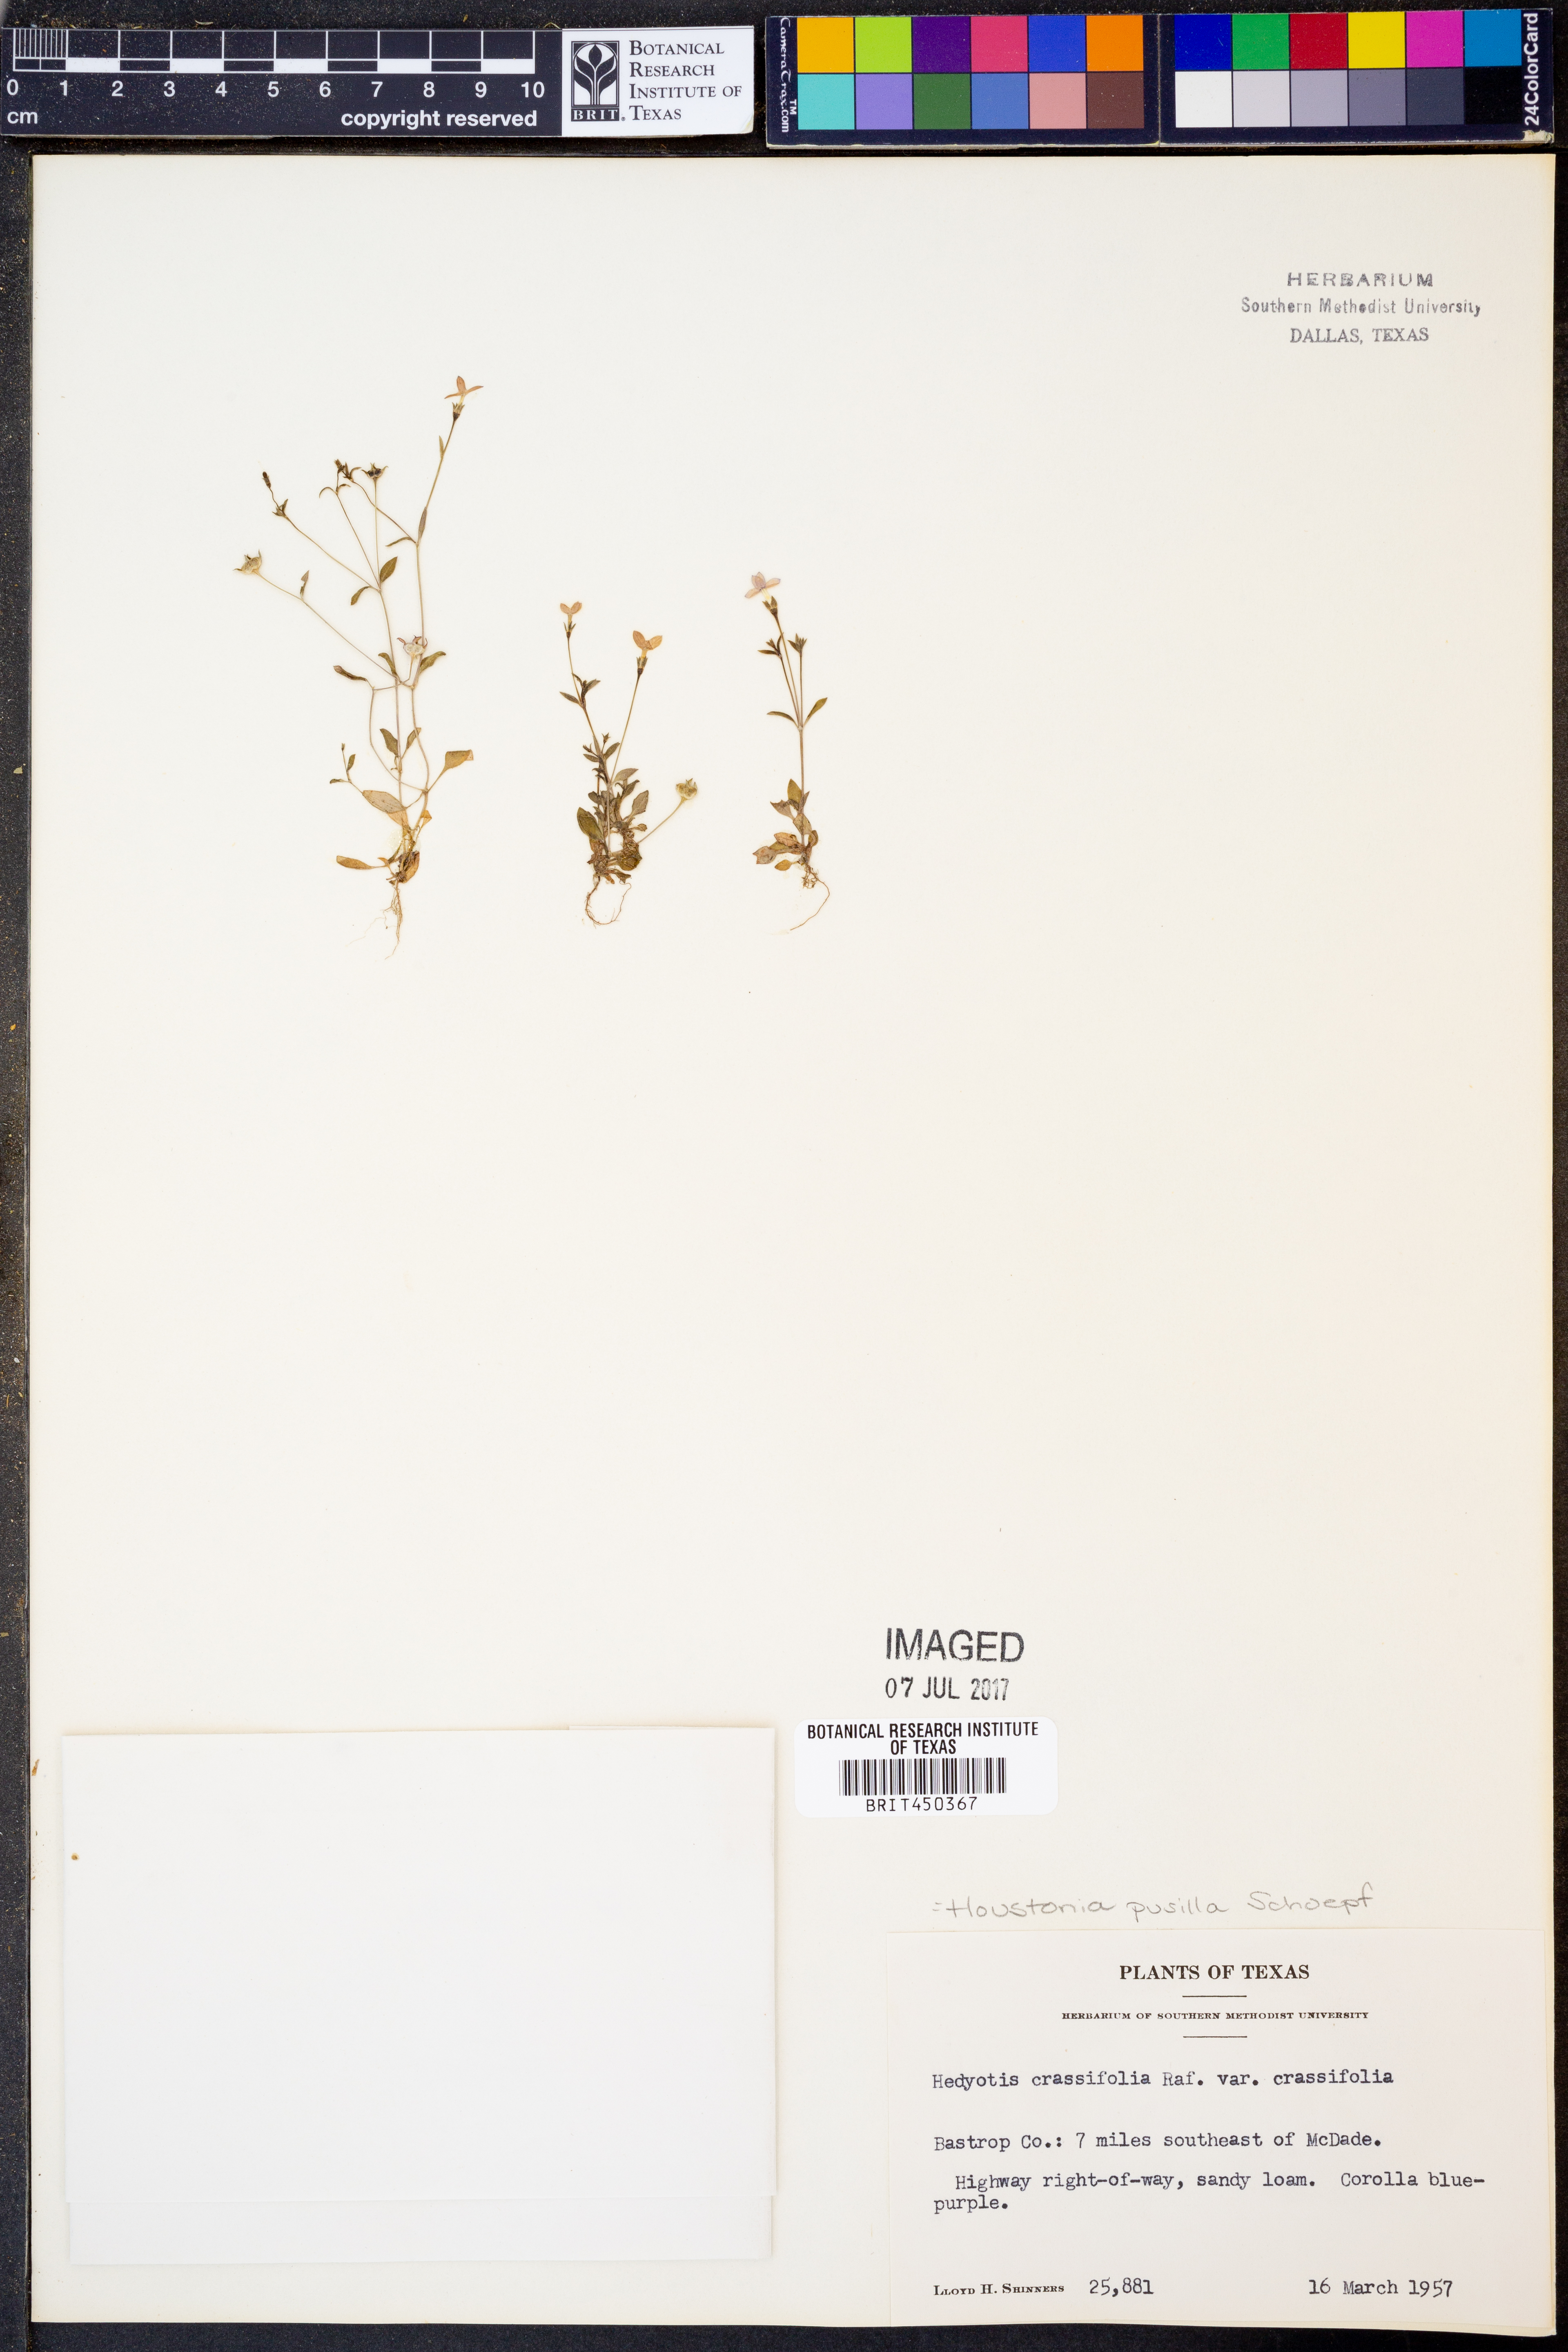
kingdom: Plantae
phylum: Tracheophyta
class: Magnoliopsida
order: Gentianales
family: Rubiaceae
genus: Hedyotis
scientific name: Hedyotis crassifolia
